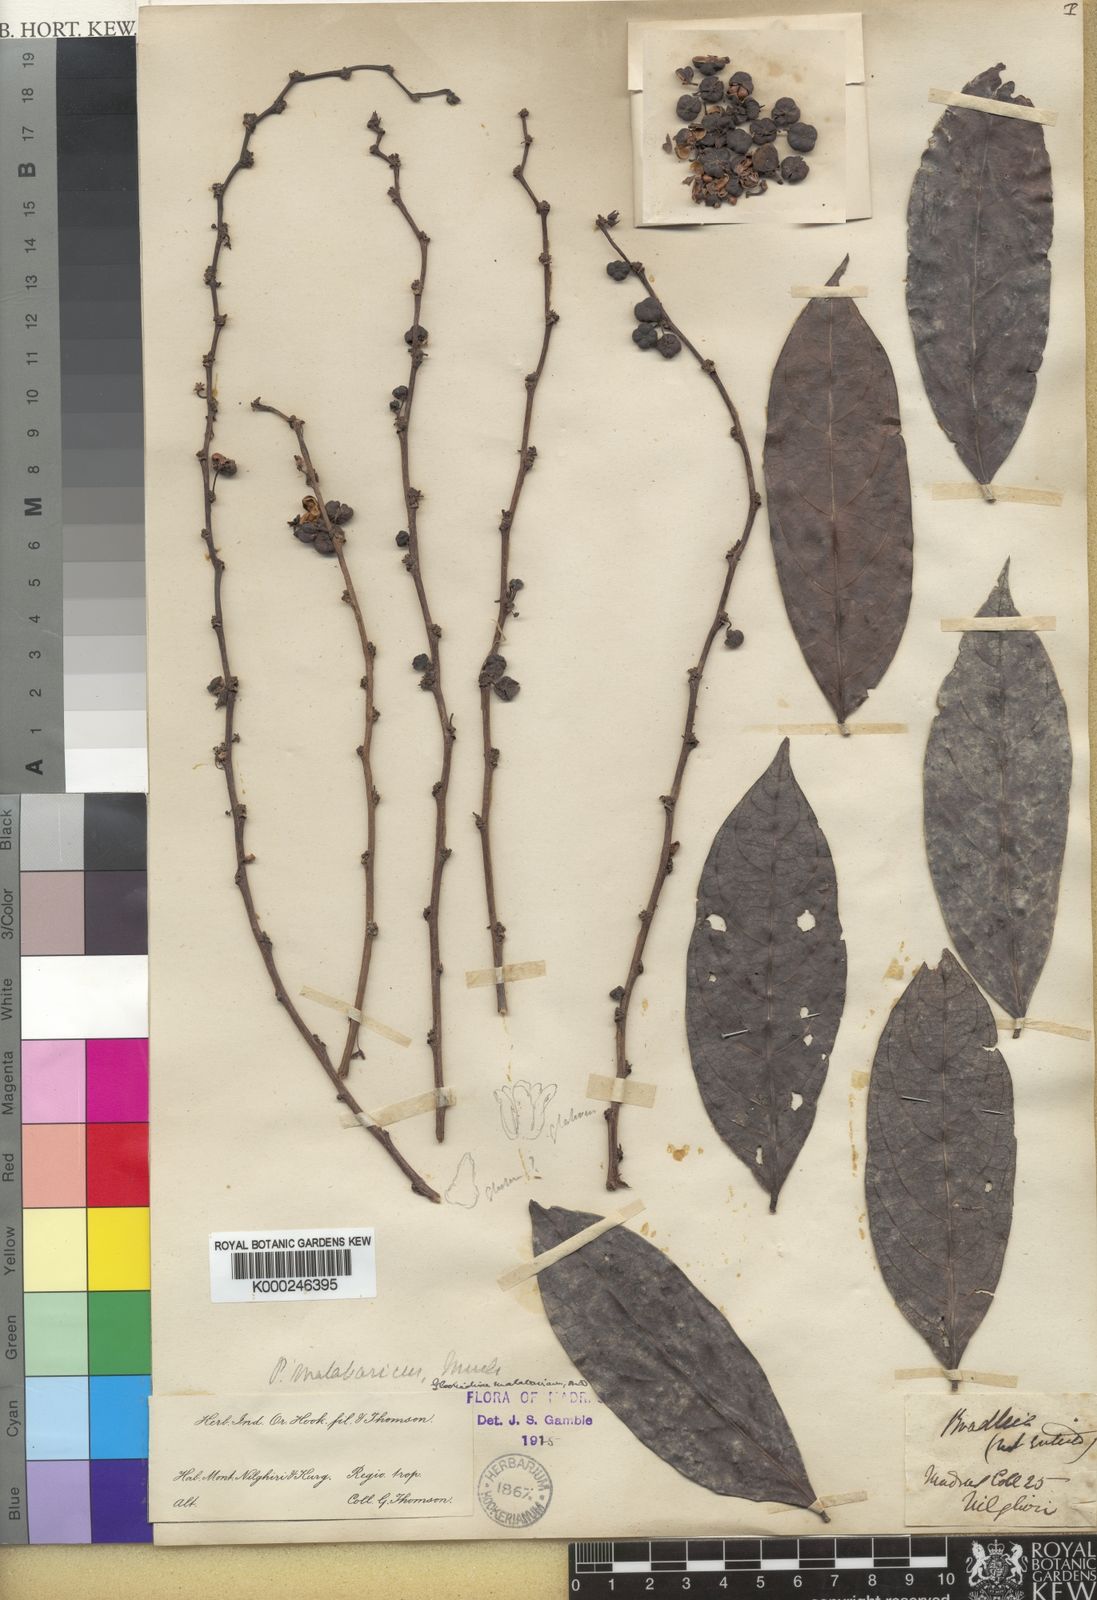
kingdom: Plantae
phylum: Tracheophyta
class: Magnoliopsida
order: Malpighiales
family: Phyllanthaceae
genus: Glochidion
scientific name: Glochidion
